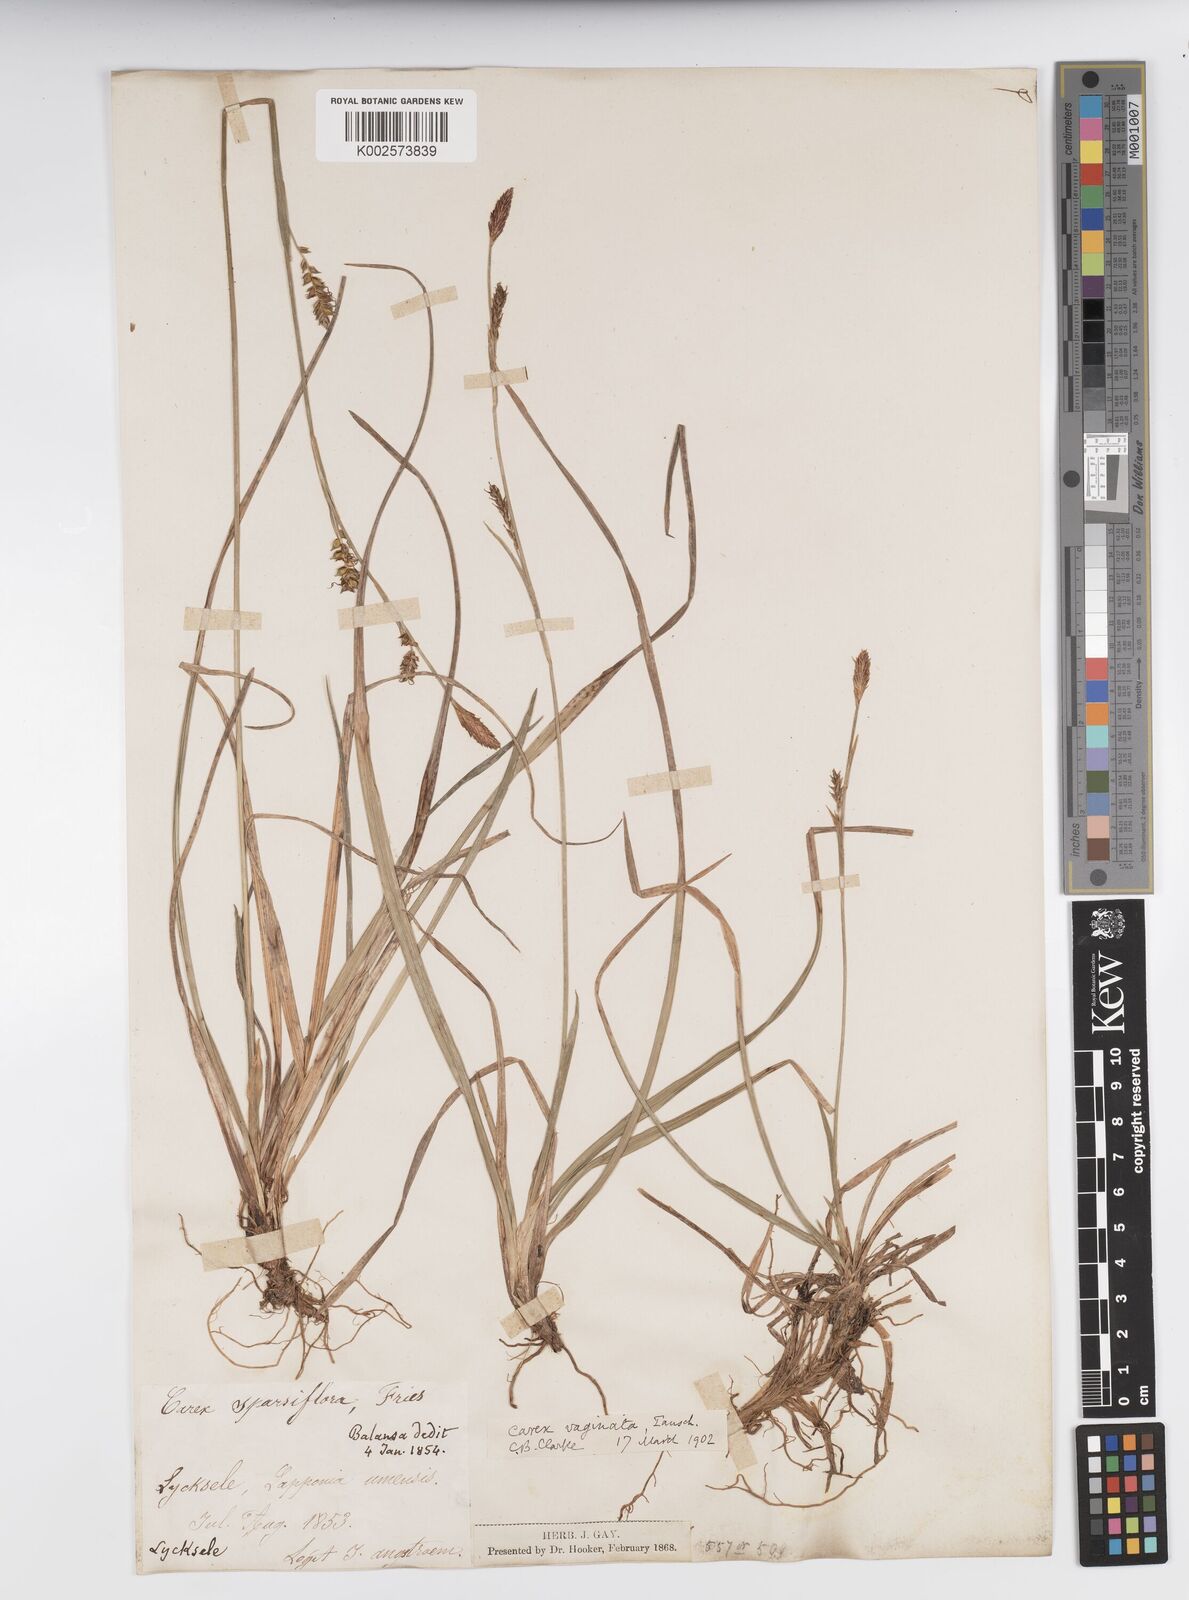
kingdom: Plantae
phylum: Tracheophyta
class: Liliopsida
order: Poales
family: Cyperaceae
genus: Carex
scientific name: Carex vaginata
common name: Sheathed sedge
